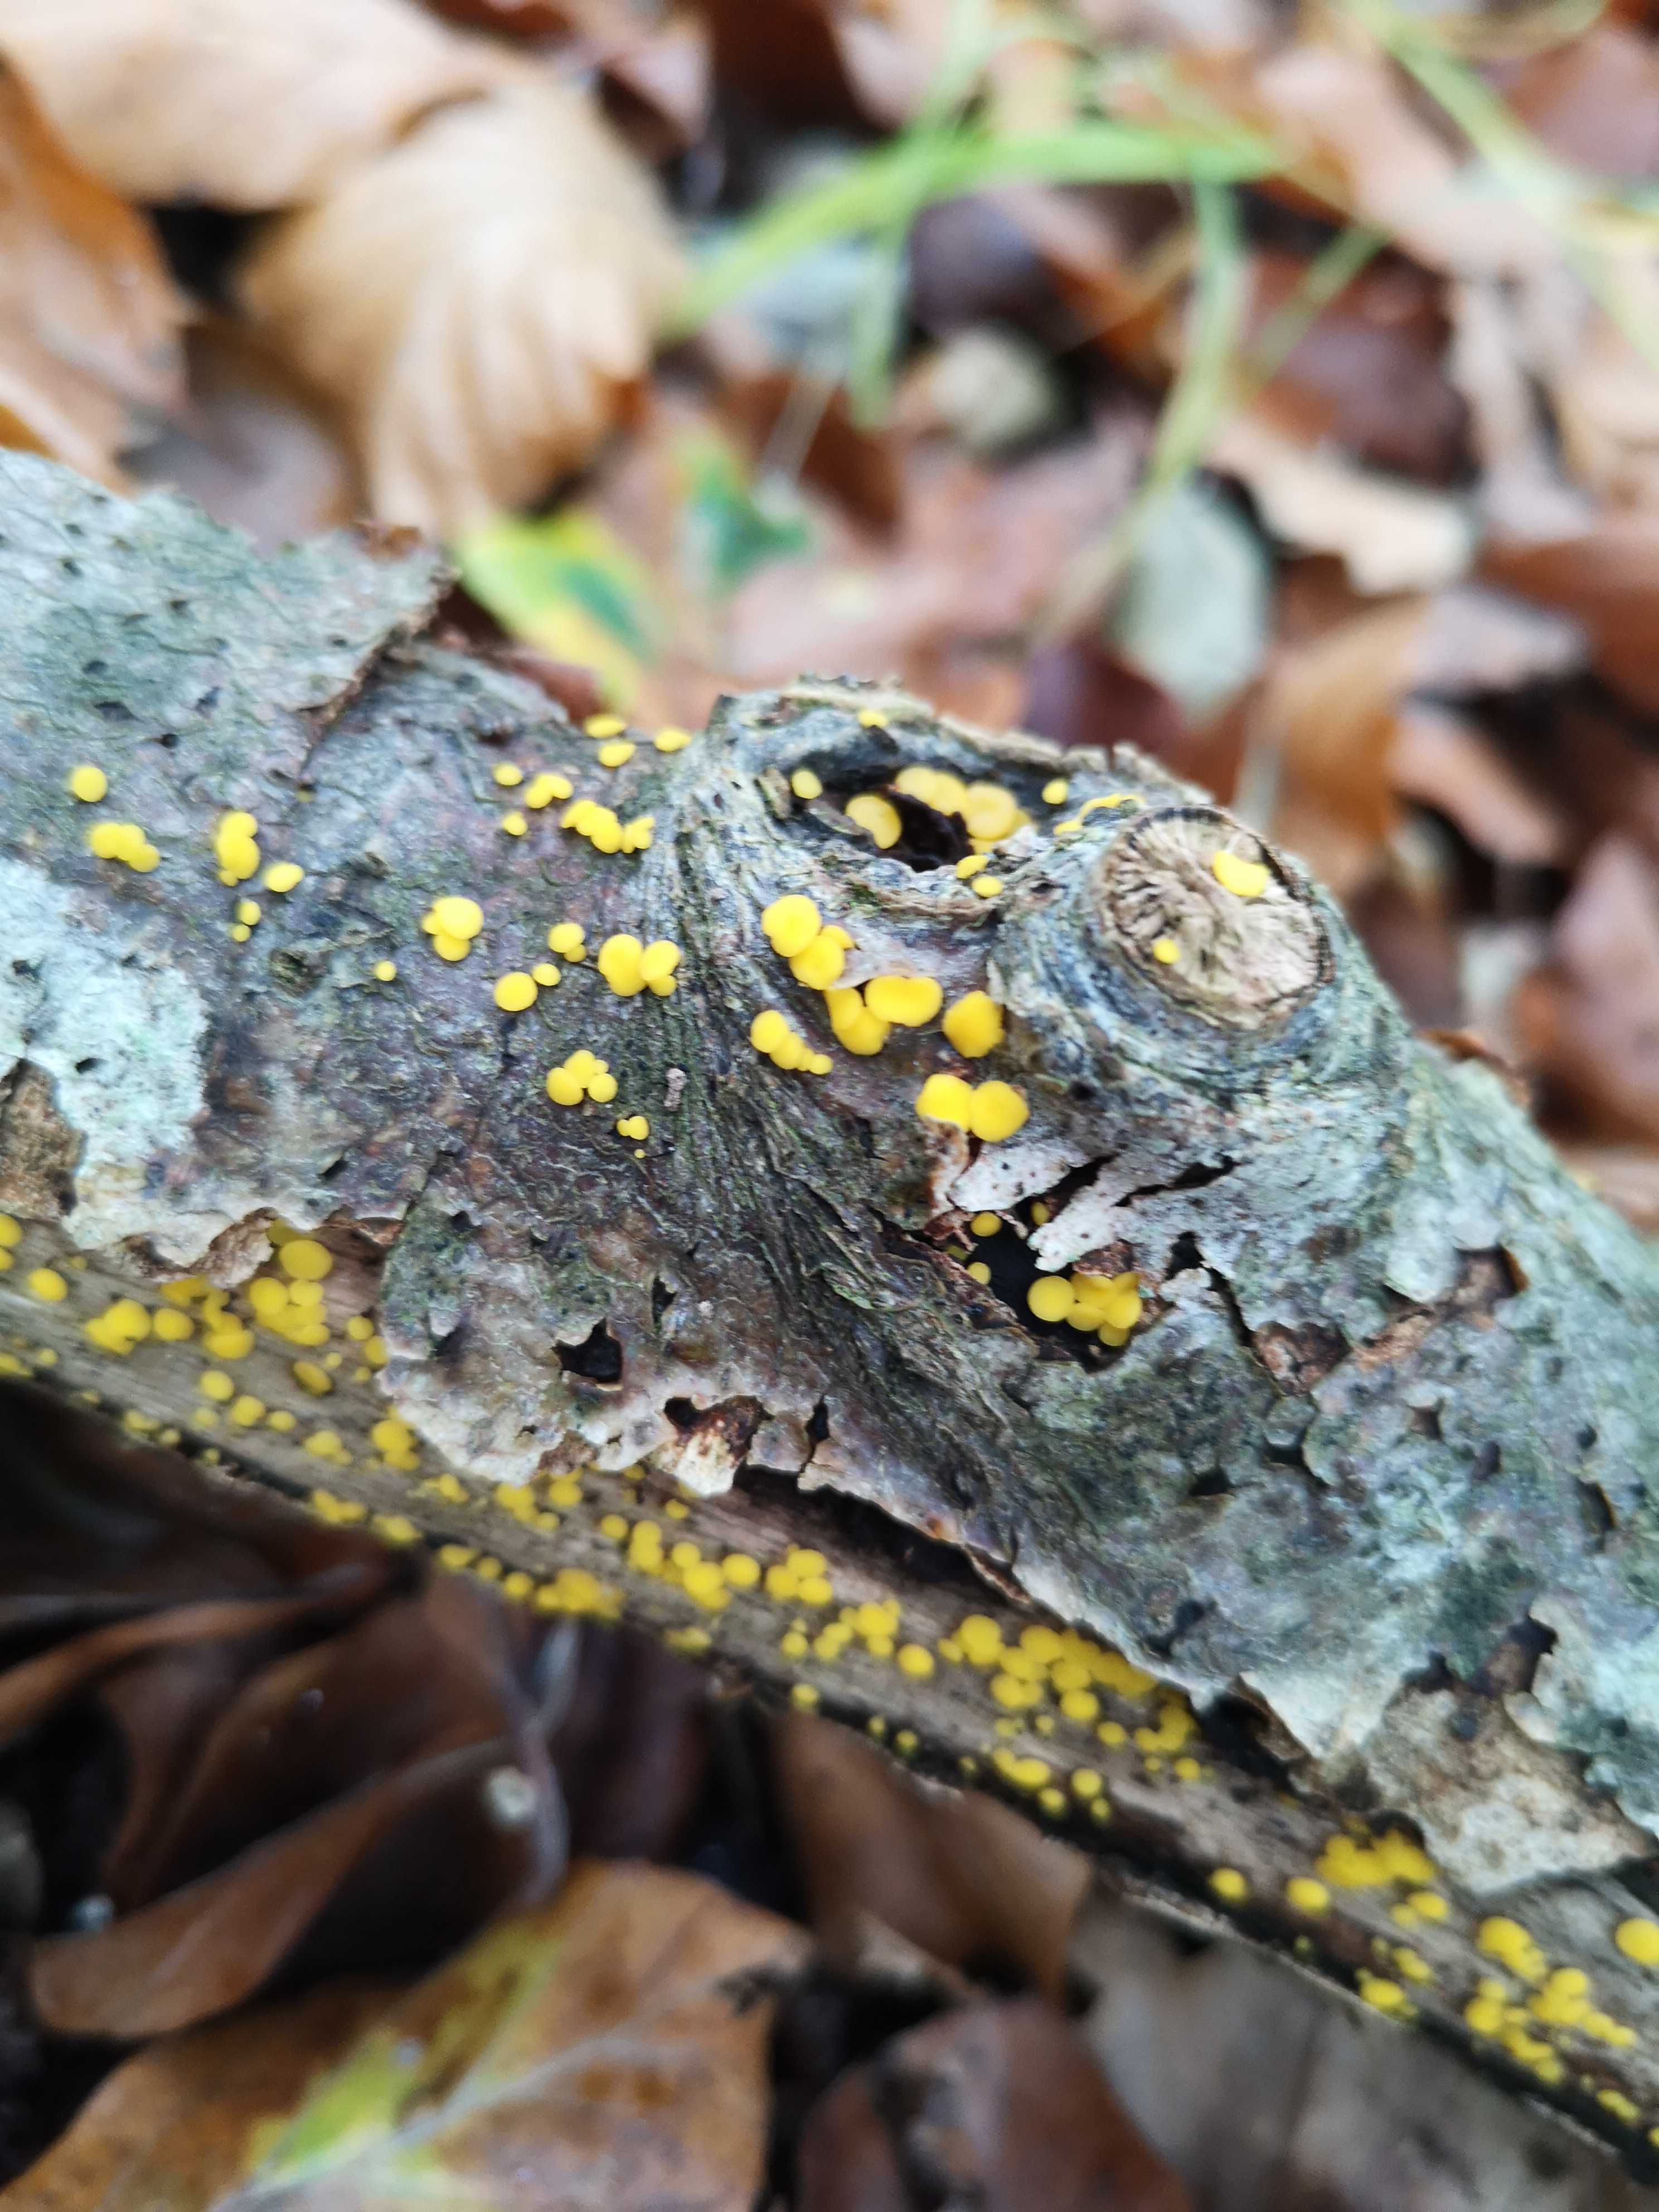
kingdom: Fungi
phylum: Ascomycota
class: Leotiomycetes
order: Helotiales
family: Pezizellaceae
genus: Calycina
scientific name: Calycina citrina
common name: almindelig gulskive
